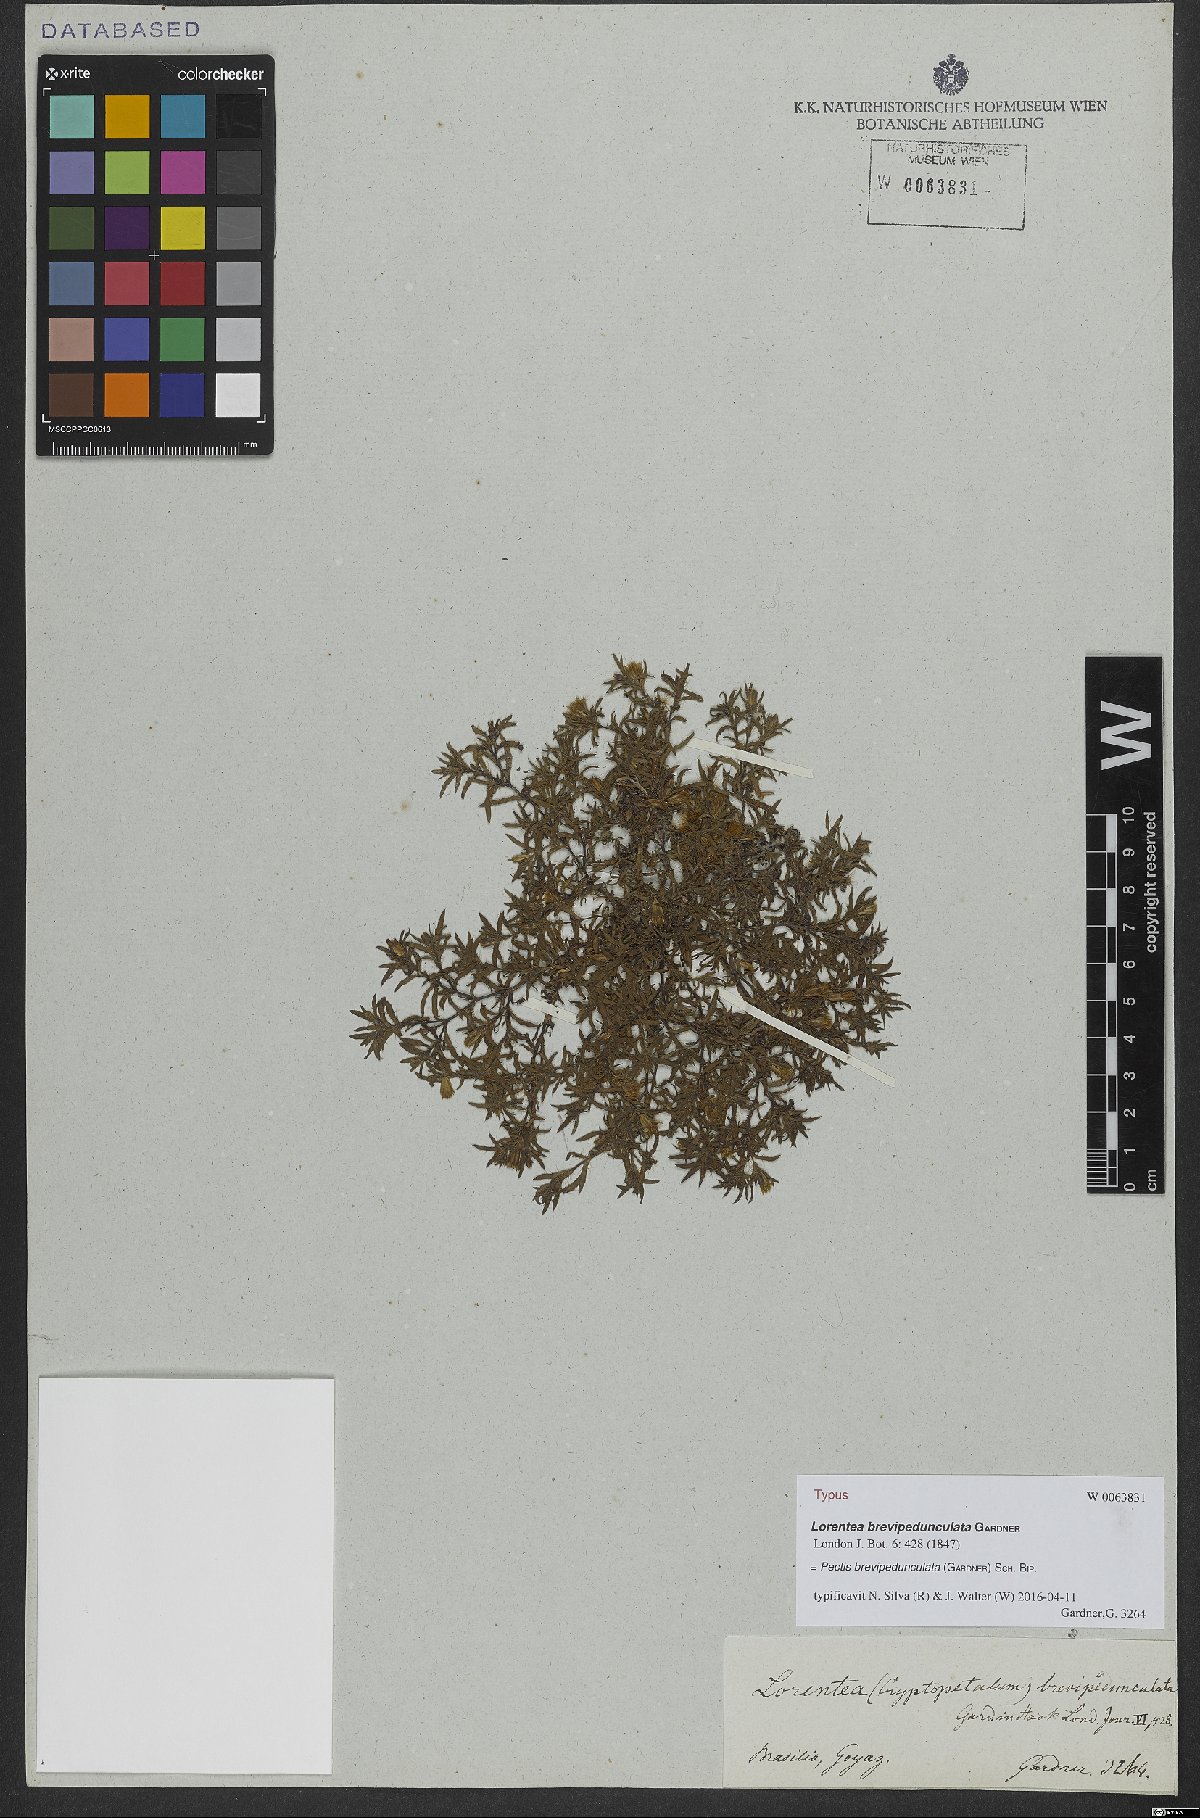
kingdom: Plantae
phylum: Tracheophyta
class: Magnoliopsida
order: Asterales
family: Asteraceae
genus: Pectis
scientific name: Pectis brevipedunculata
